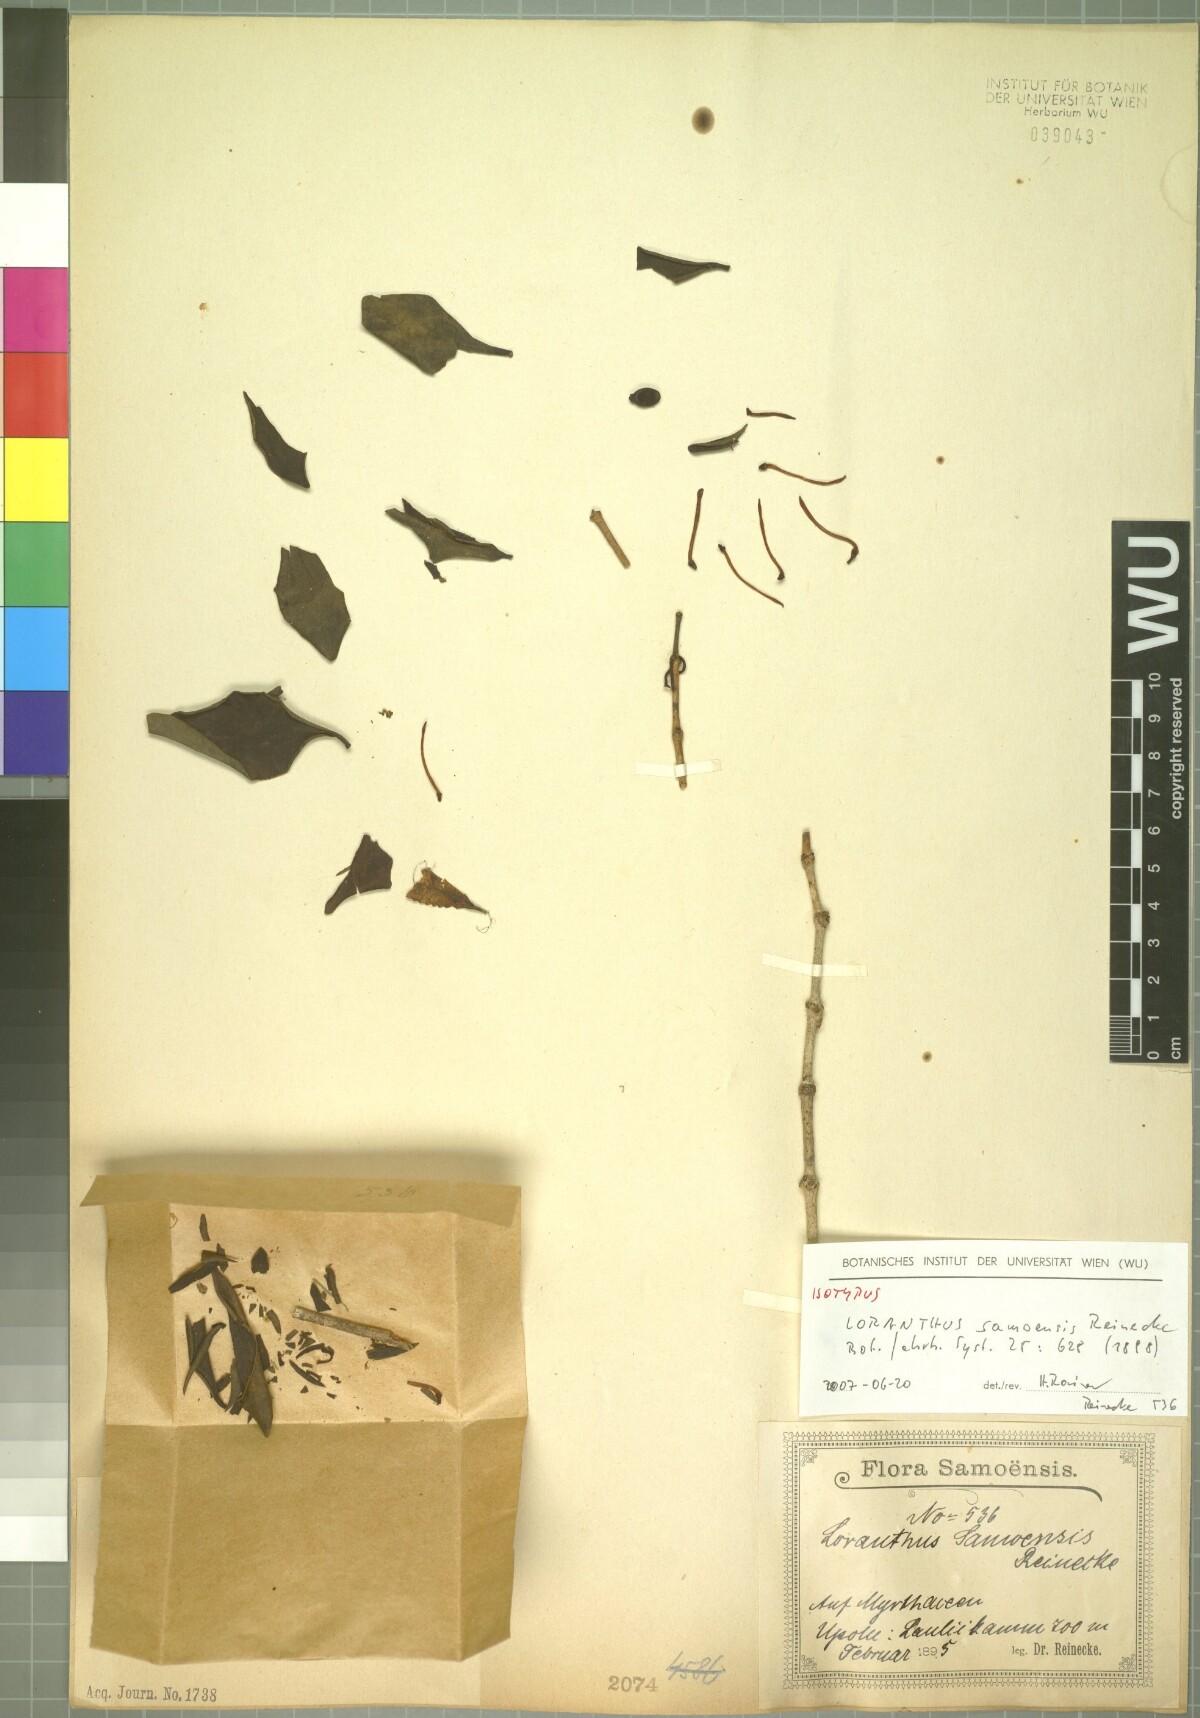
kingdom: Plantae
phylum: Tracheophyta
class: Magnoliopsida
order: Santalales
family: Loranthaceae
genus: Amyema
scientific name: Amyema artensis
